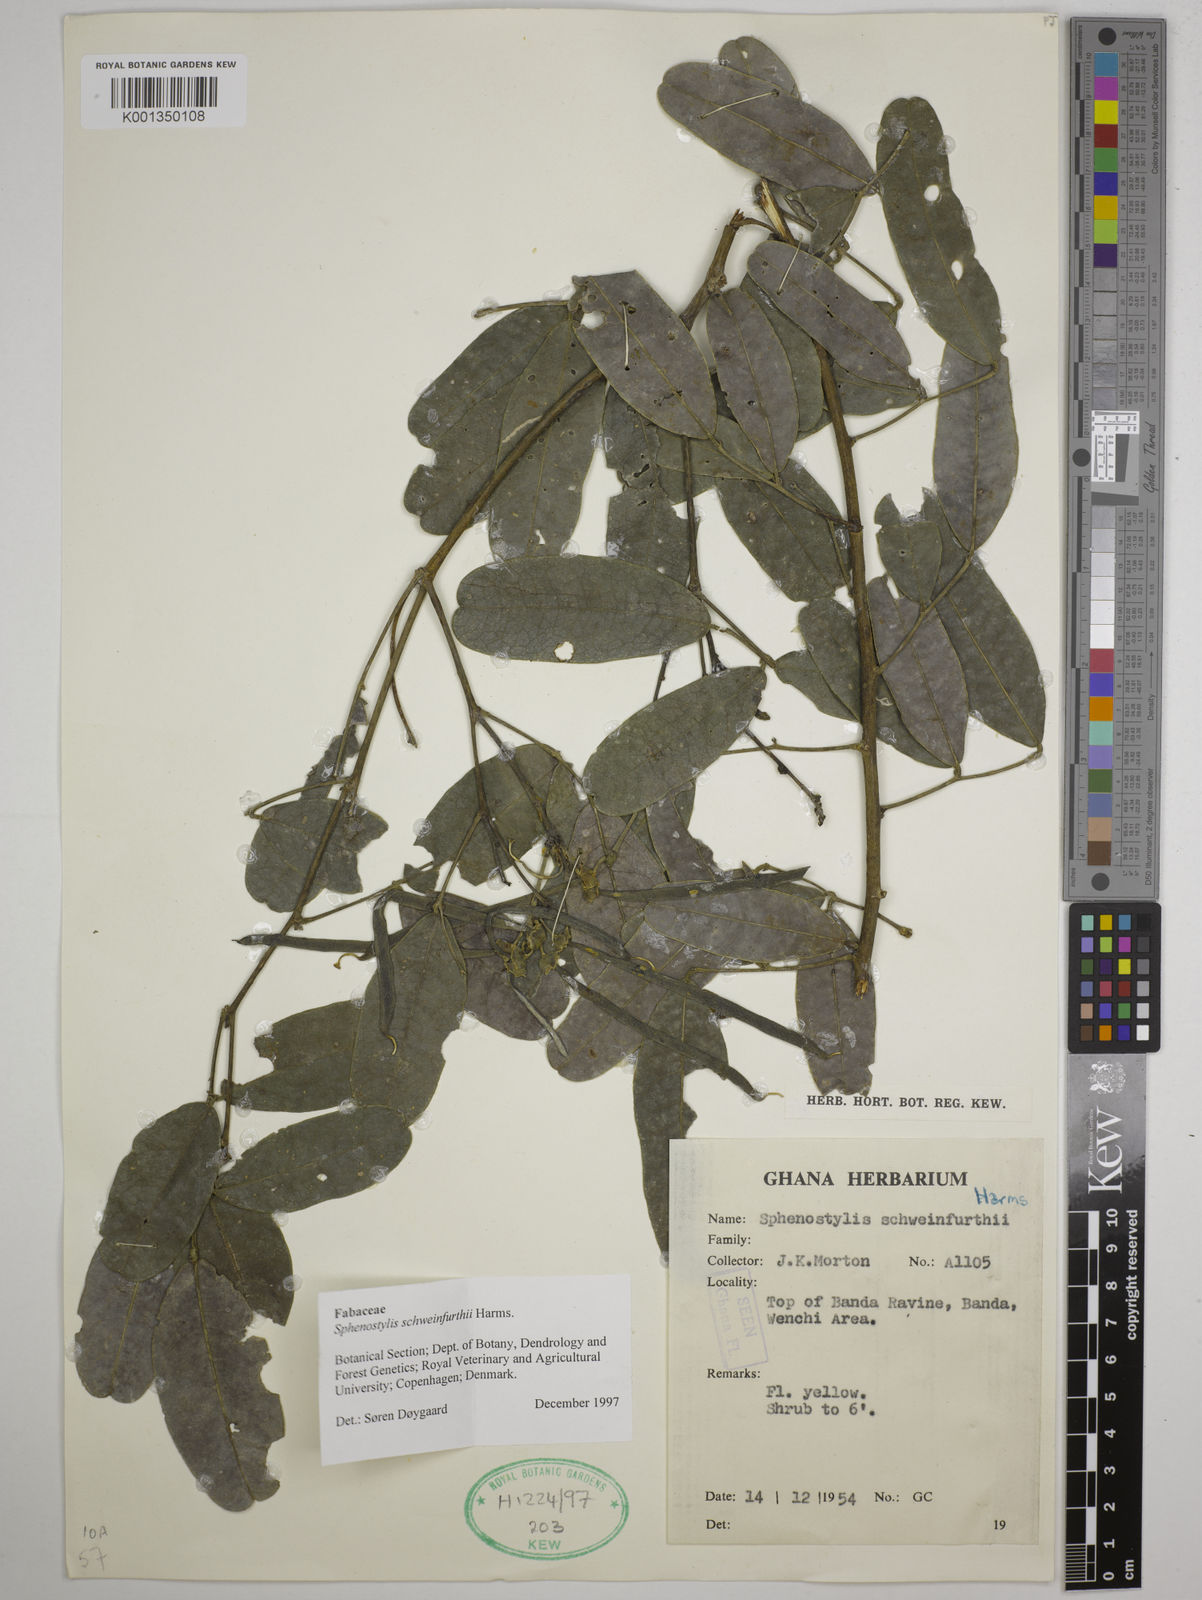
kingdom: Plantae
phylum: Tracheophyta
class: Magnoliopsida
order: Fabales
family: Fabaceae
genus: Sphenostylis
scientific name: Sphenostylis schweinfurthii
